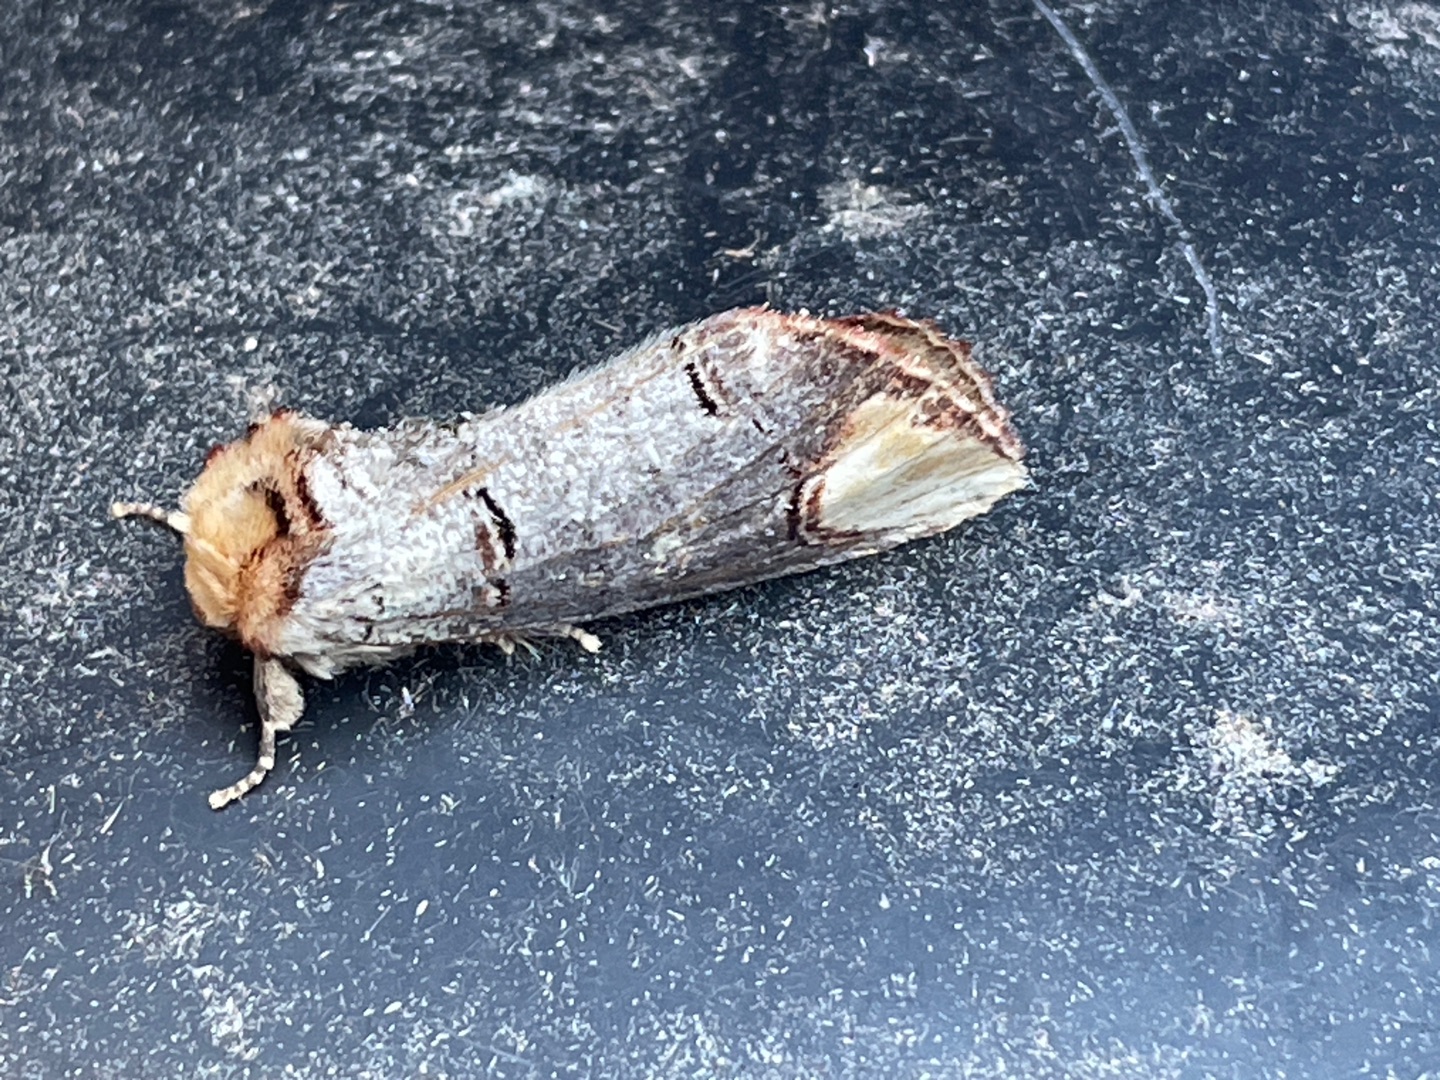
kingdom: Animalia
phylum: Arthropoda
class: Insecta
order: Lepidoptera
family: Notodontidae
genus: Phalera
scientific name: Phalera bucephala
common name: Måneplet
